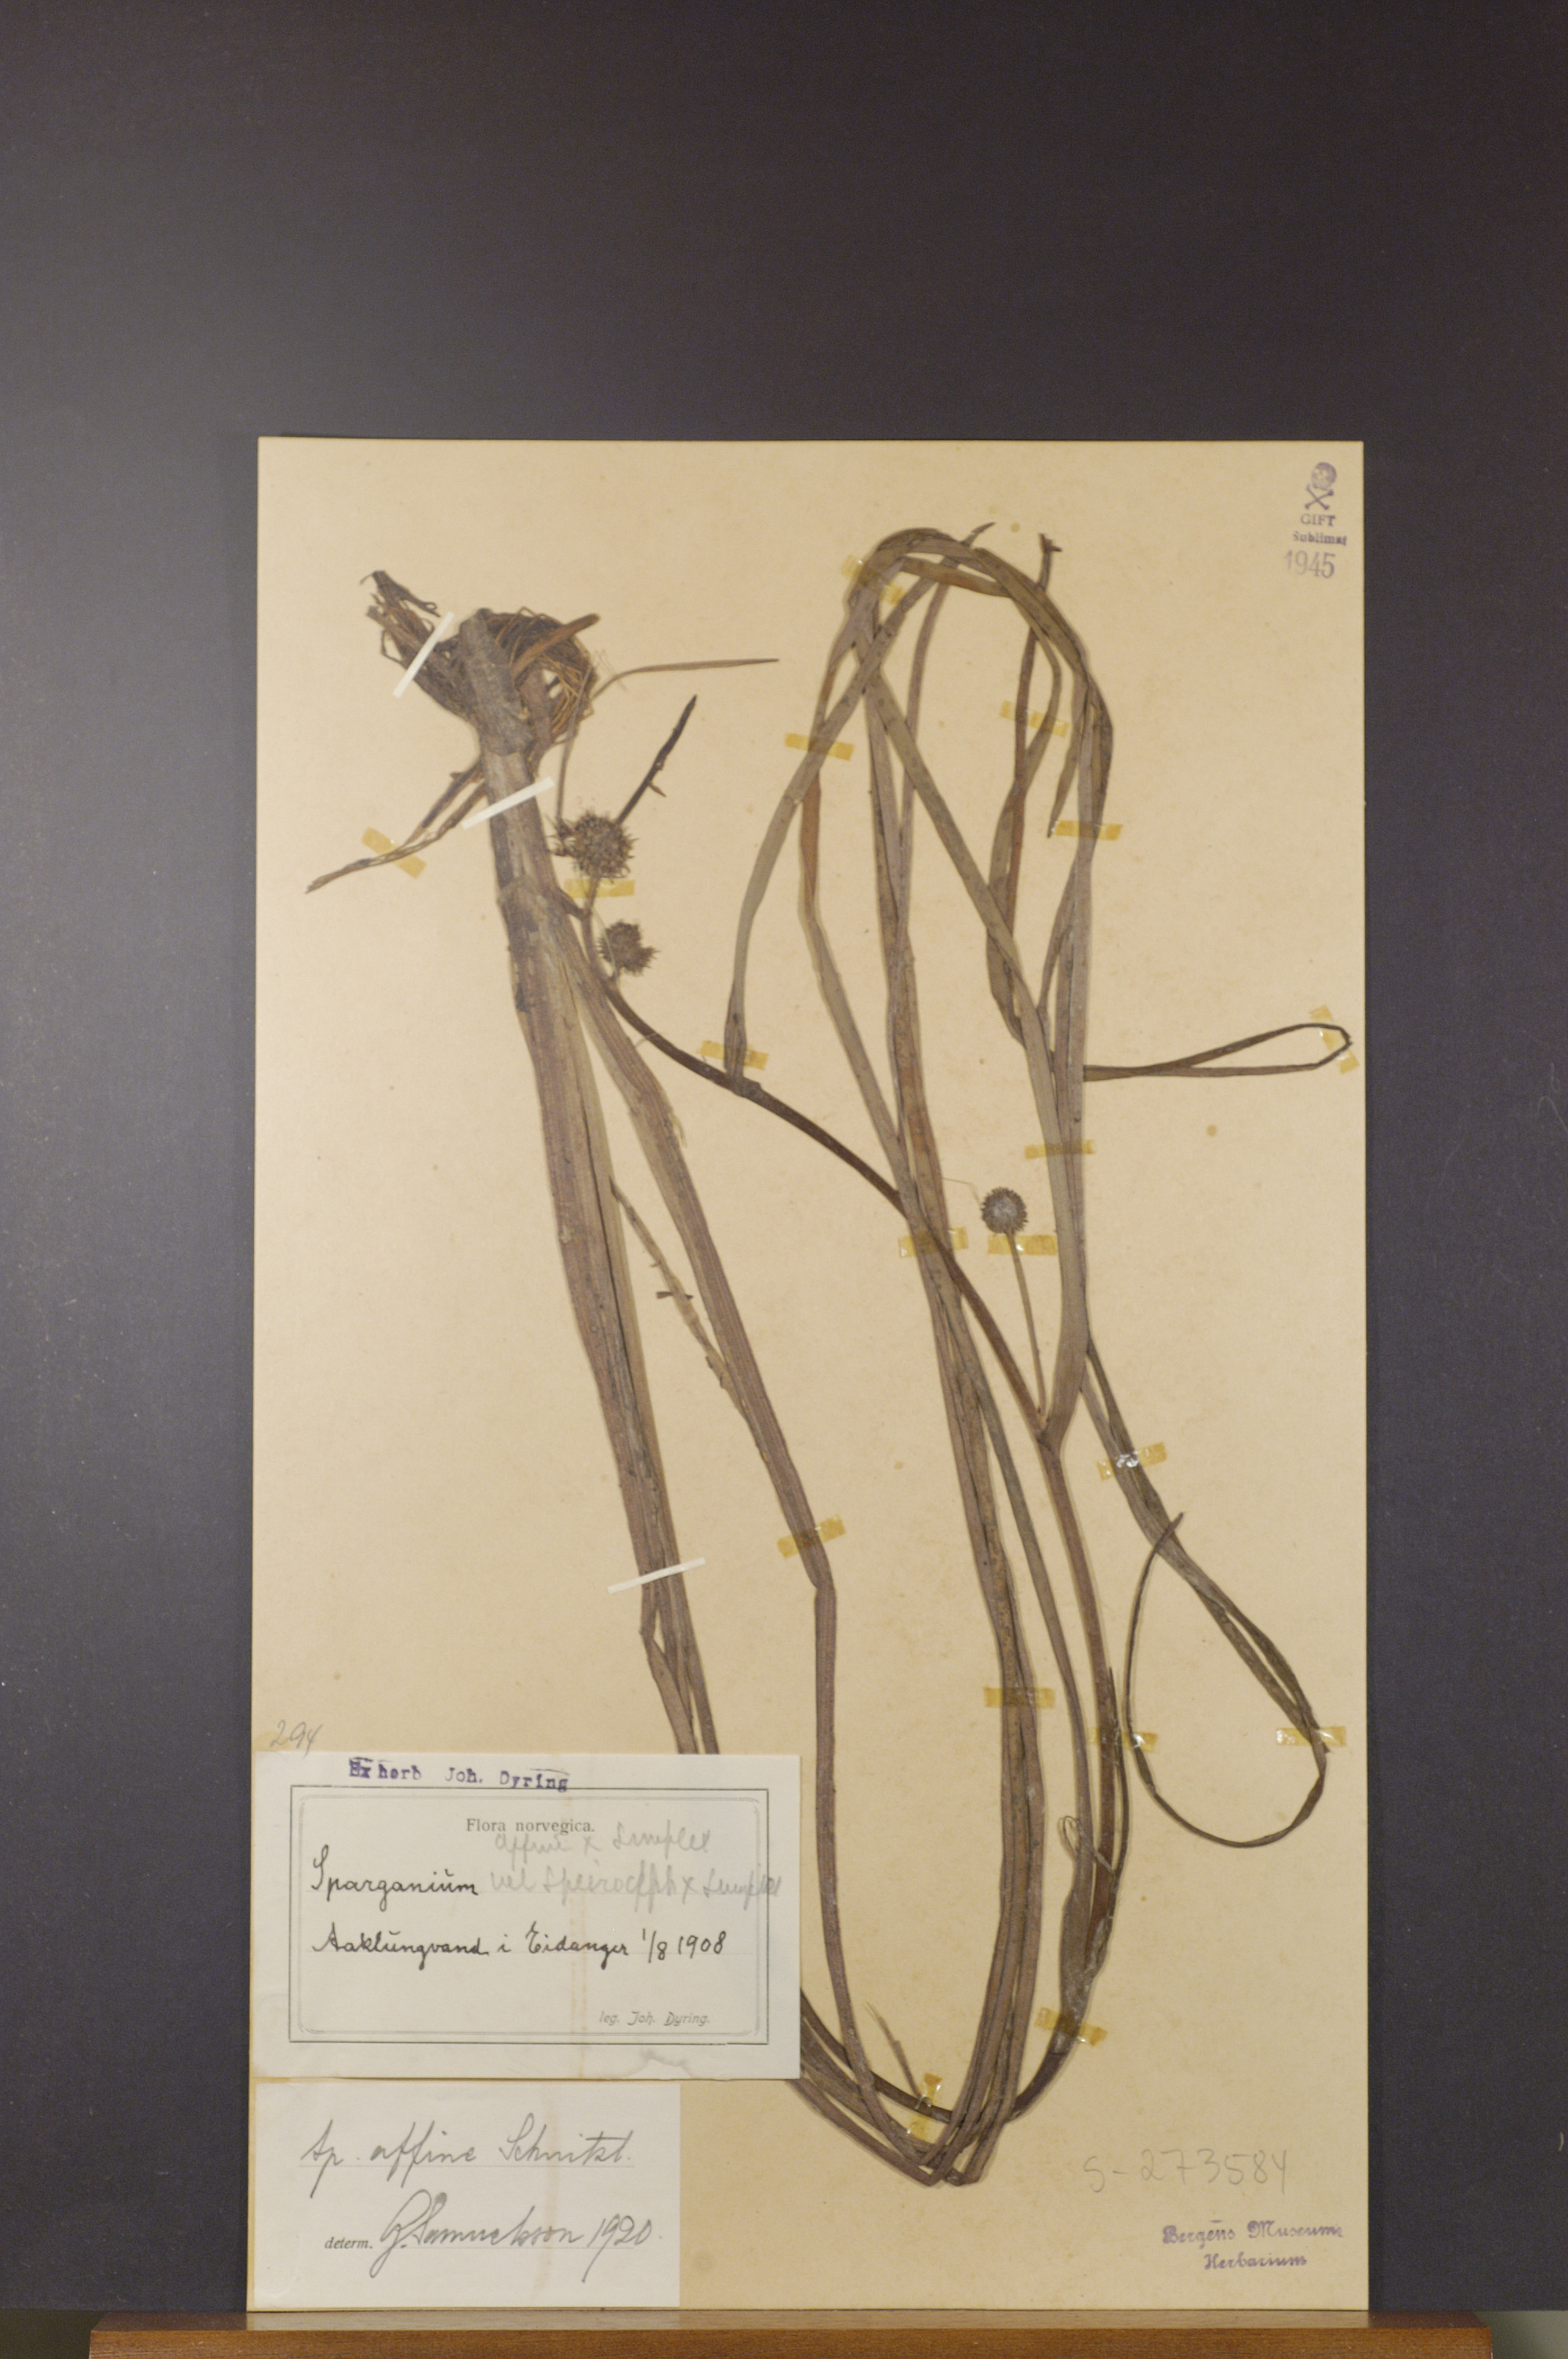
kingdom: Plantae
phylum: Tracheophyta
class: Liliopsida
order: Poales
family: Typhaceae
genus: Sparganium
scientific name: Sparganium angustifolium
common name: Floating bur-reed
